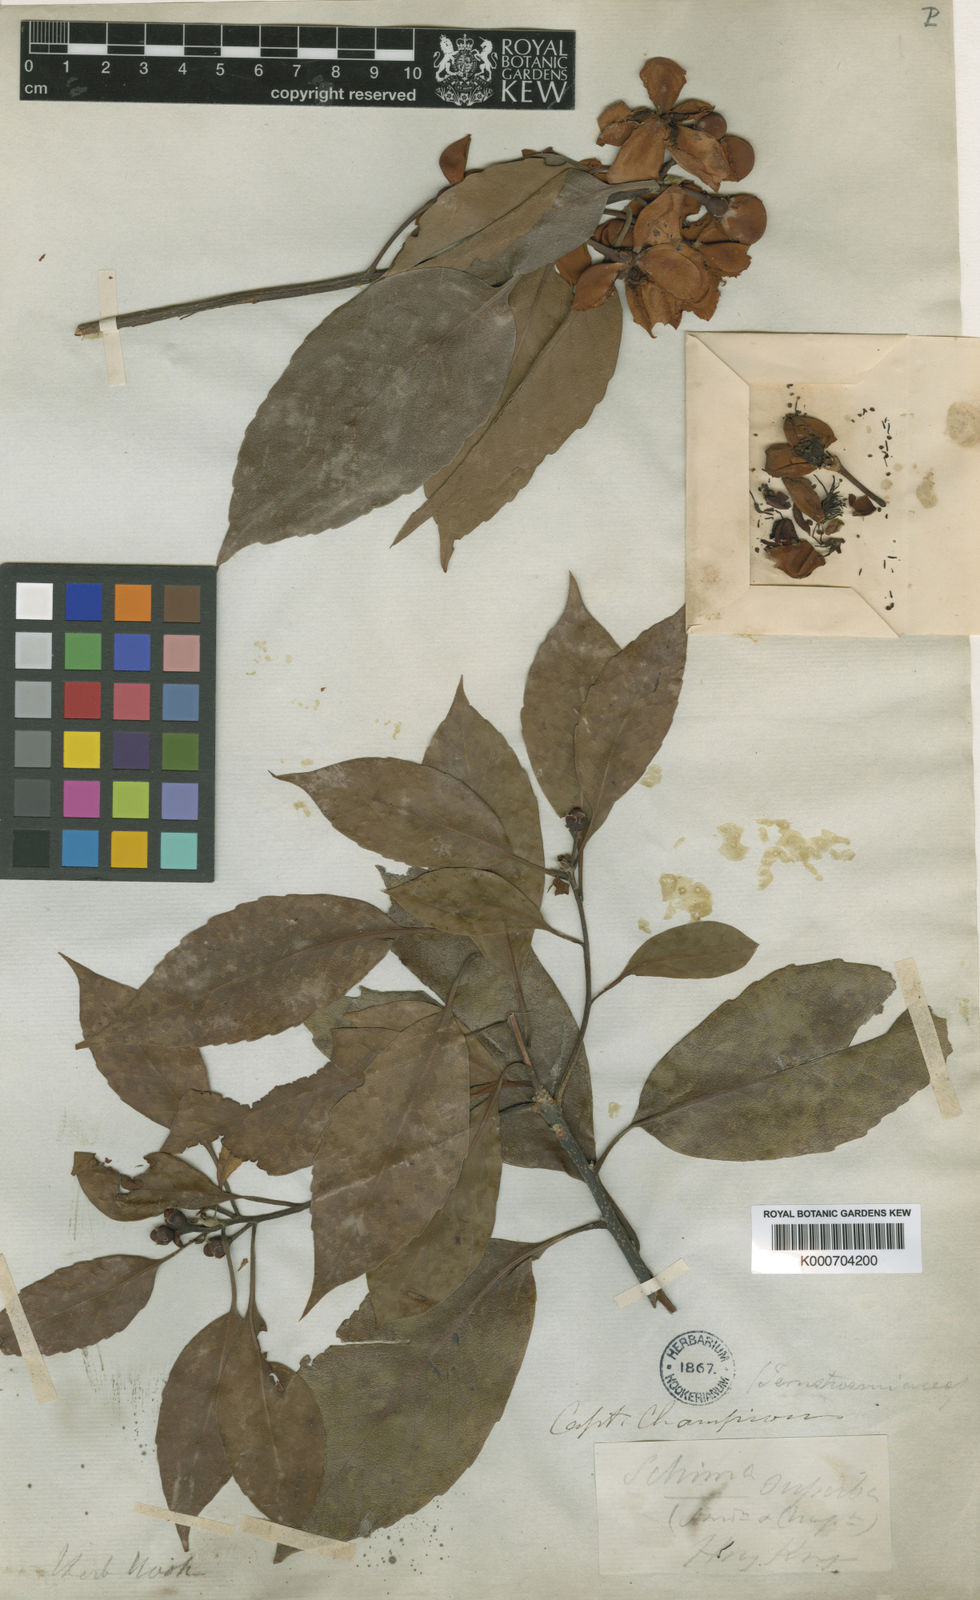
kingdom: Plantae
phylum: Tracheophyta
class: Magnoliopsida
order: Ericales
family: Theaceae
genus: Schima
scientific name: Schima superba
